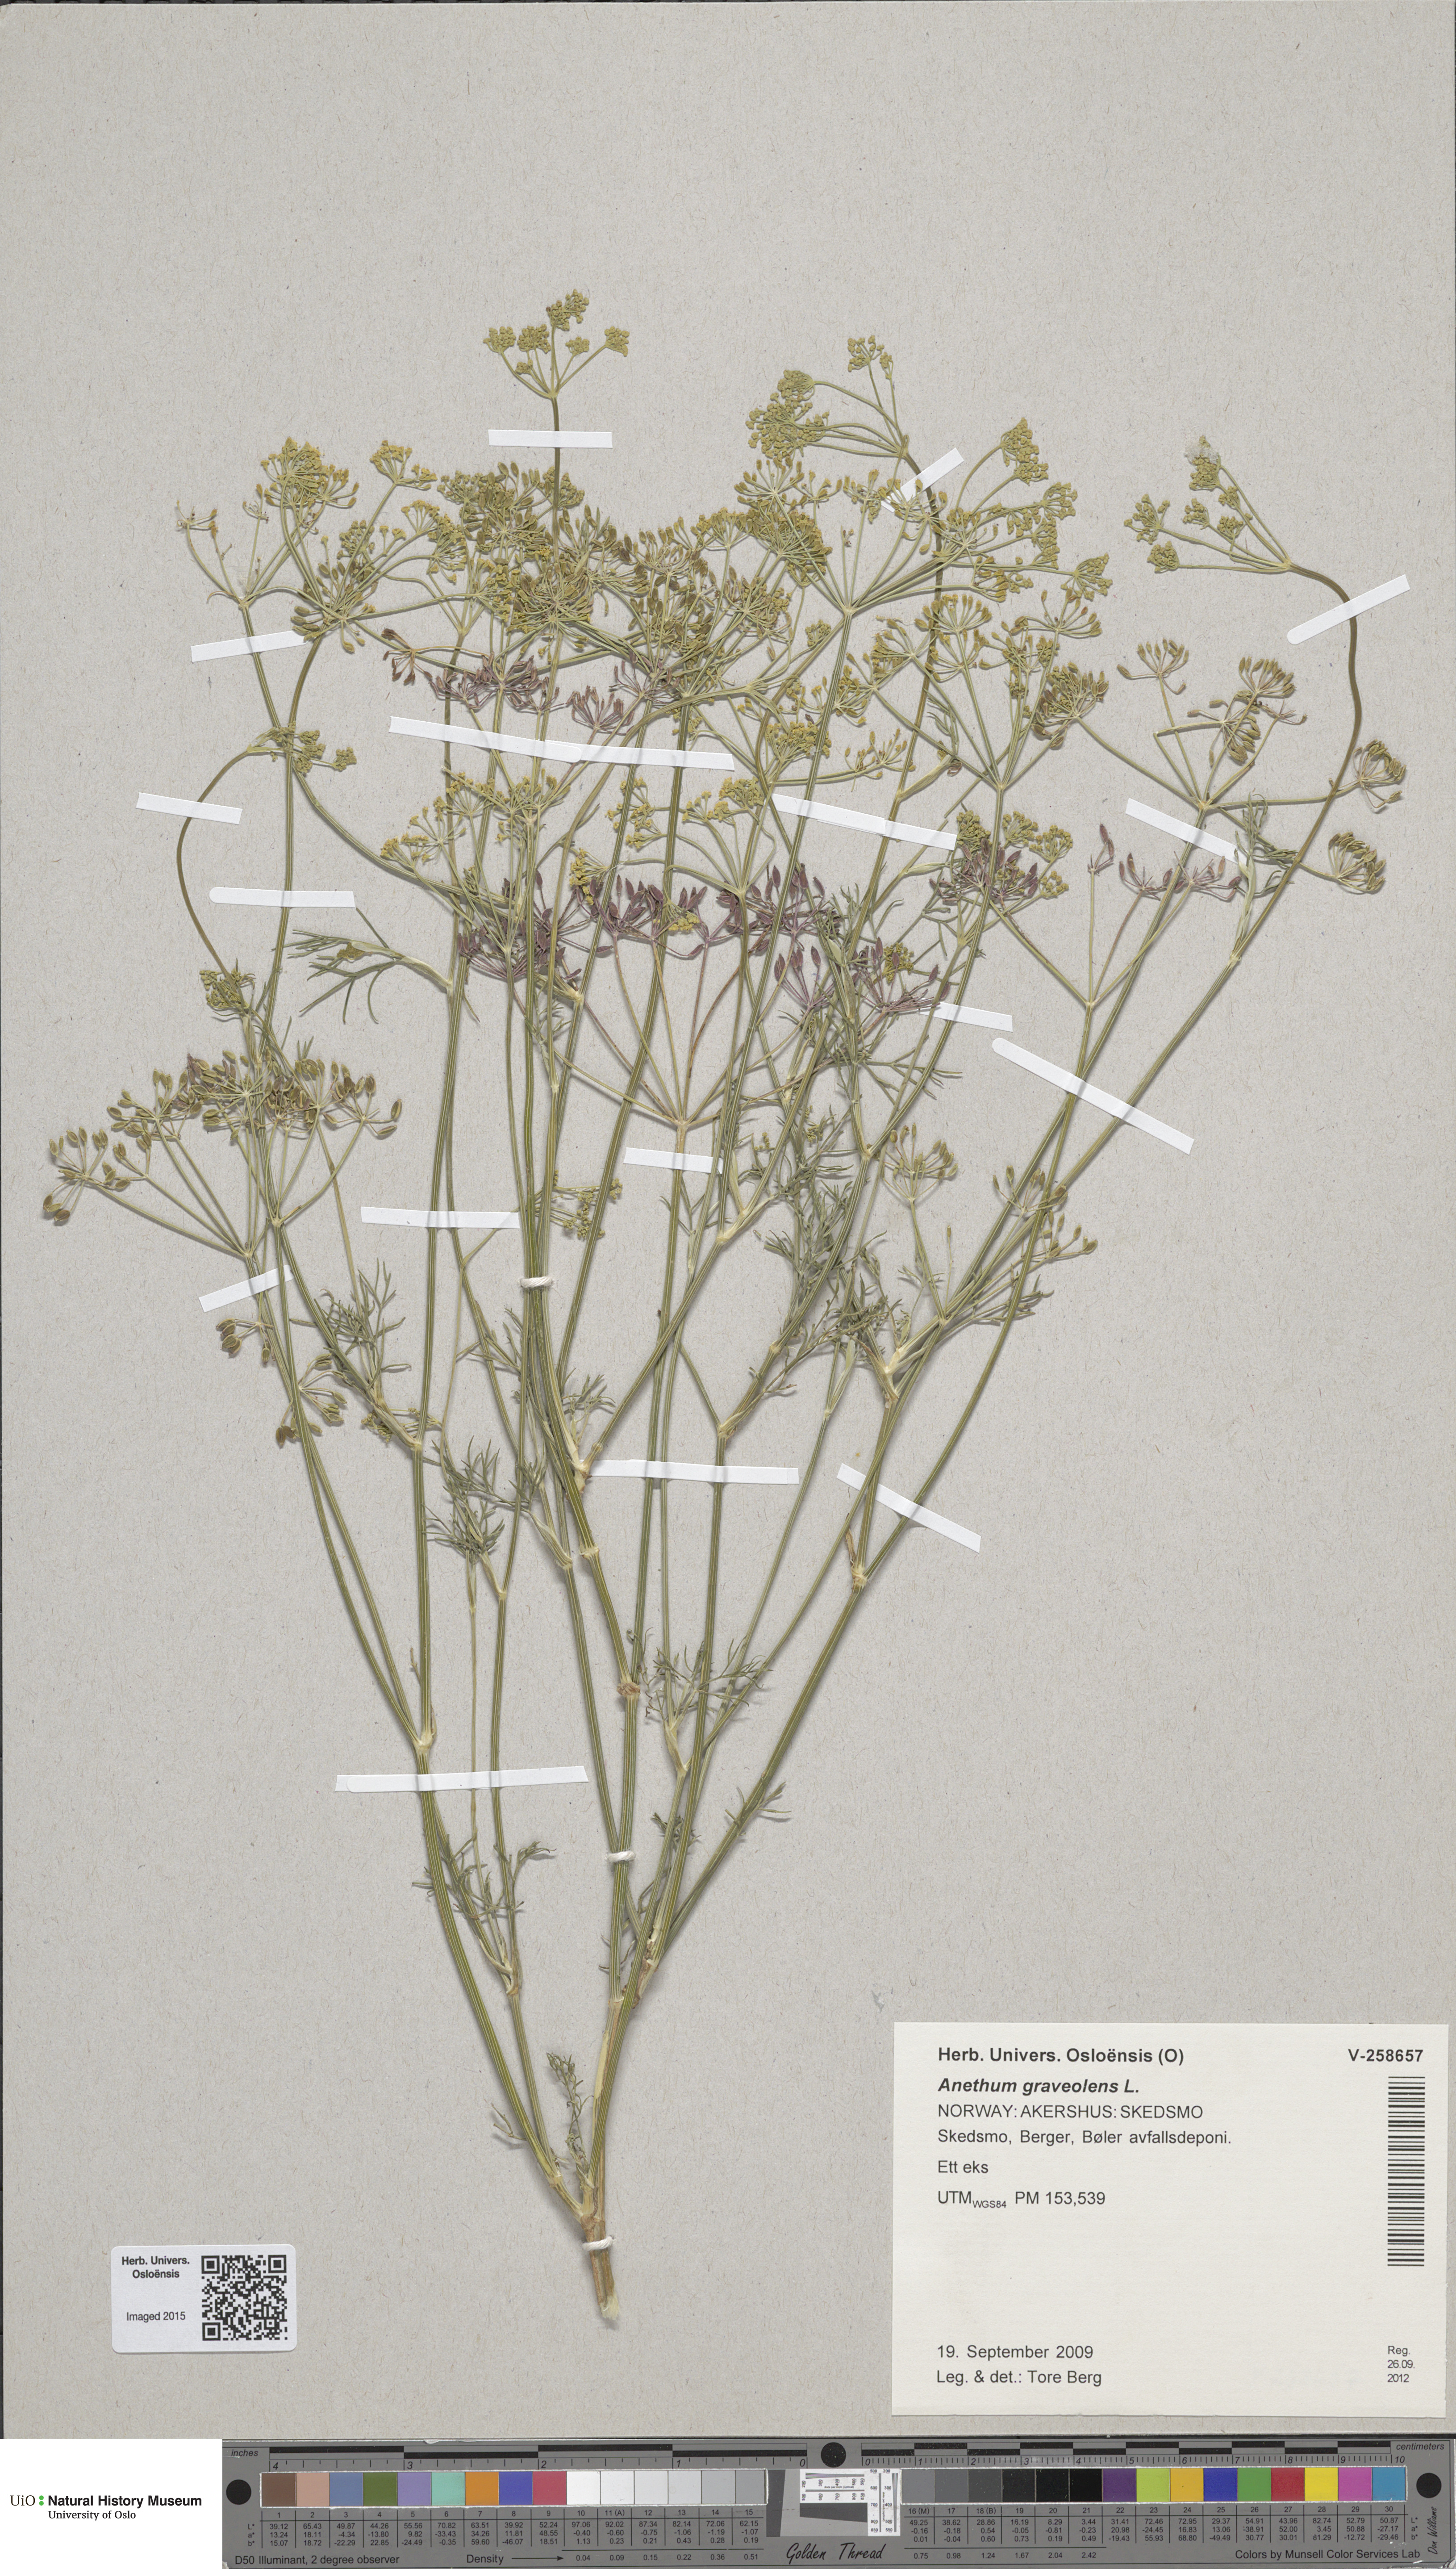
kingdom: Plantae
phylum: Tracheophyta
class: Magnoliopsida
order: Apiales
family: Apiaceae
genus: Anethum
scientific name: Anethum graveolens
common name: Dill
